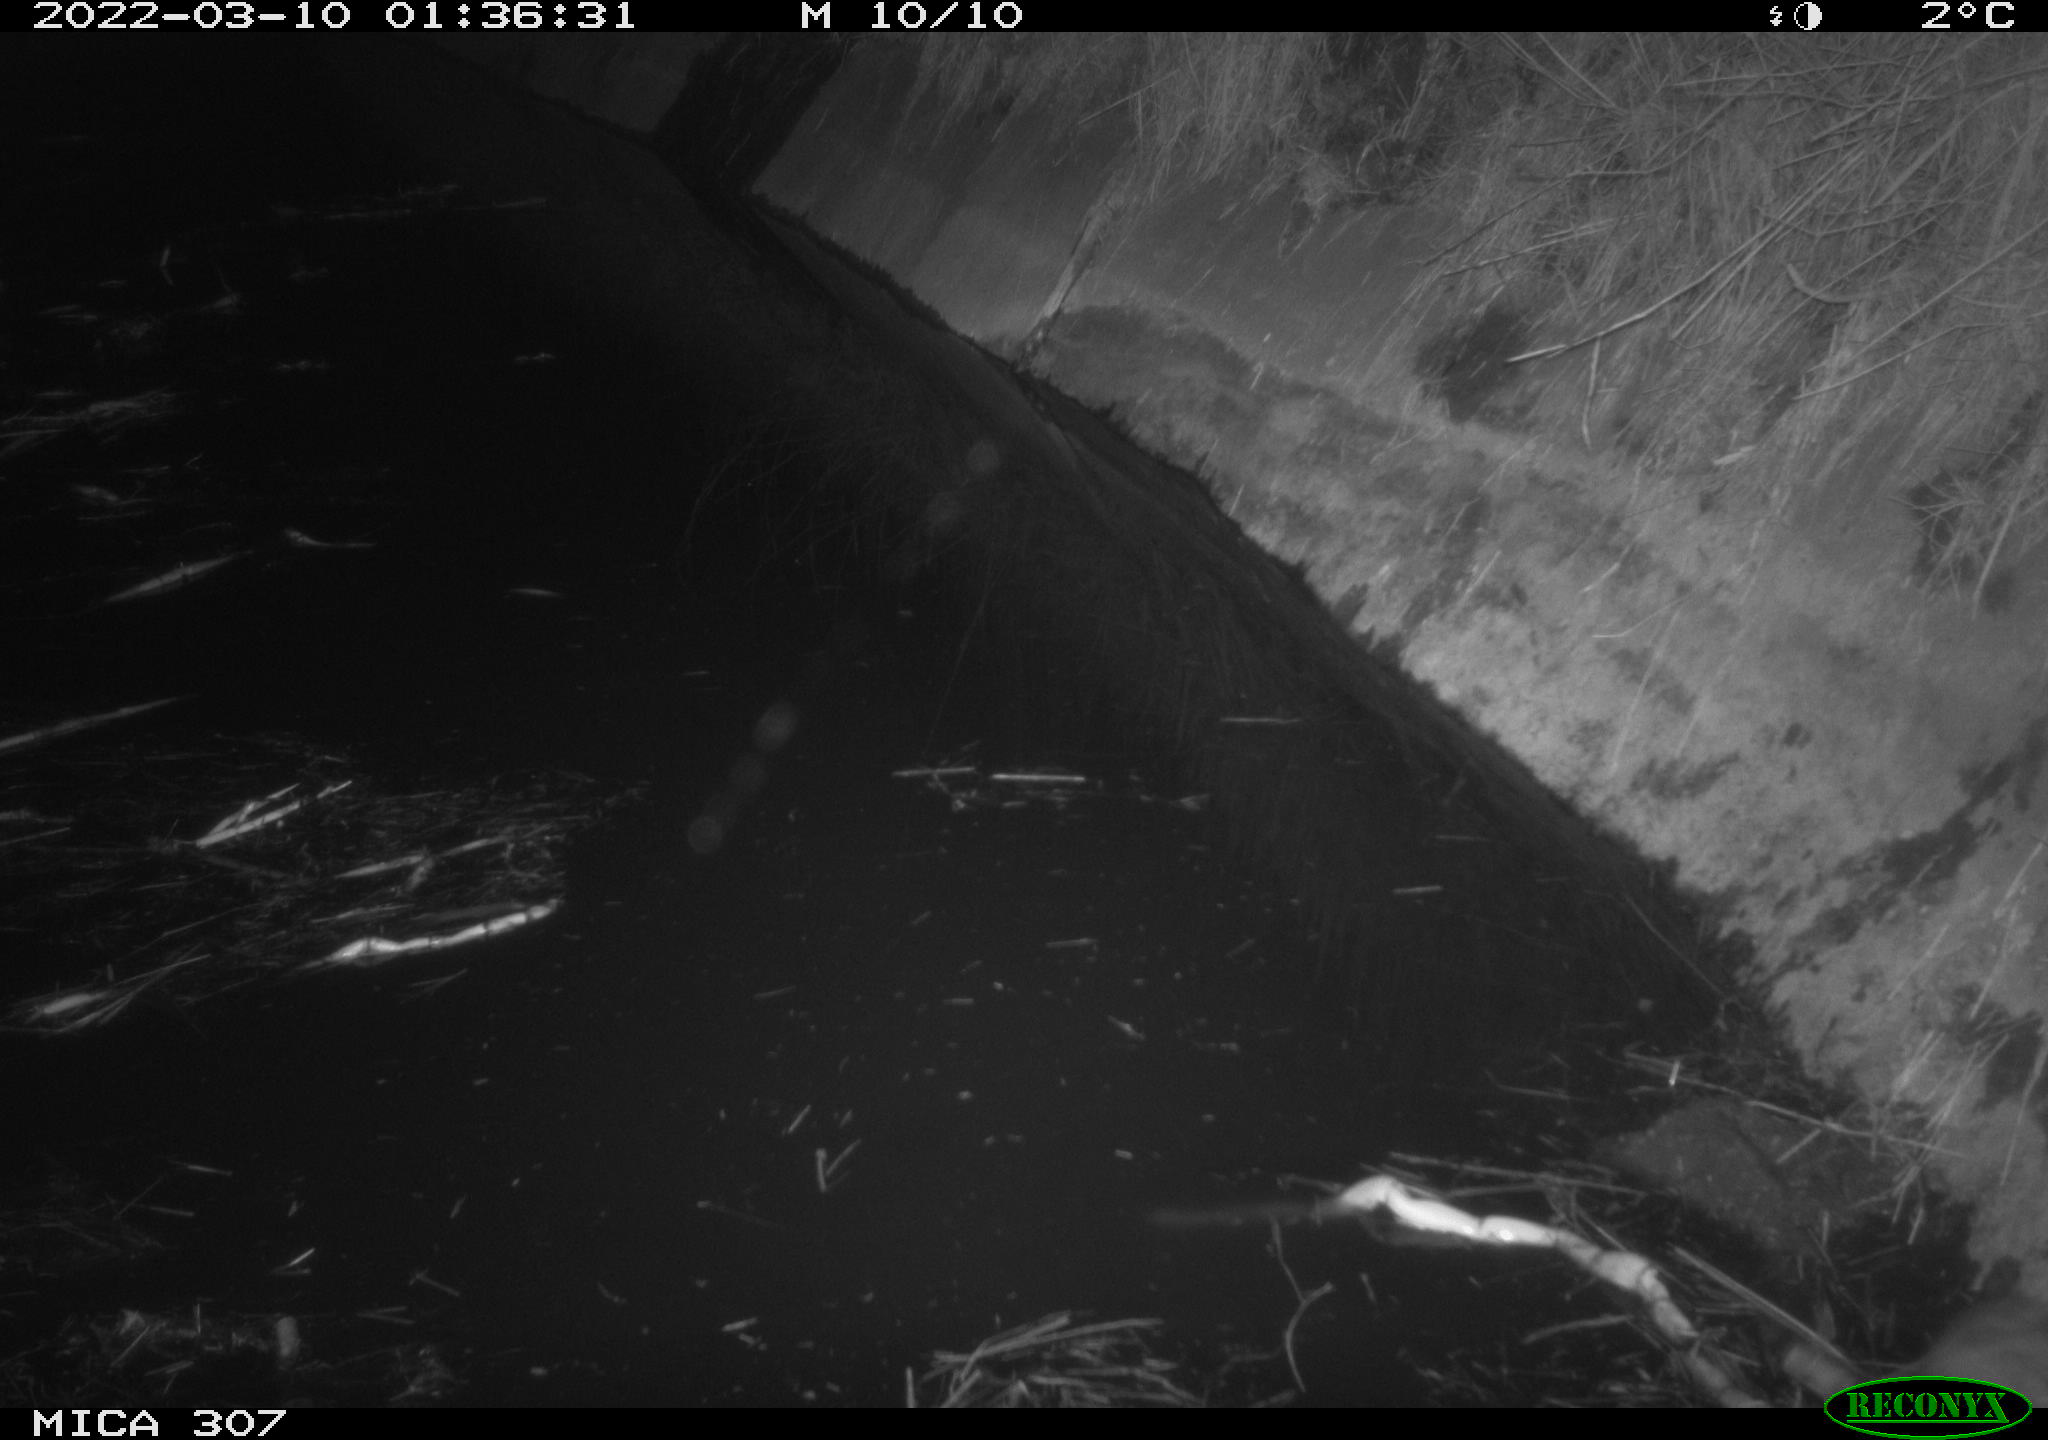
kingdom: Animalia
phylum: Chordata
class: Mammalia
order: Rodentia
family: Muridae
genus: Rattus
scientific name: Rattus norvegicus
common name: Brown rat
